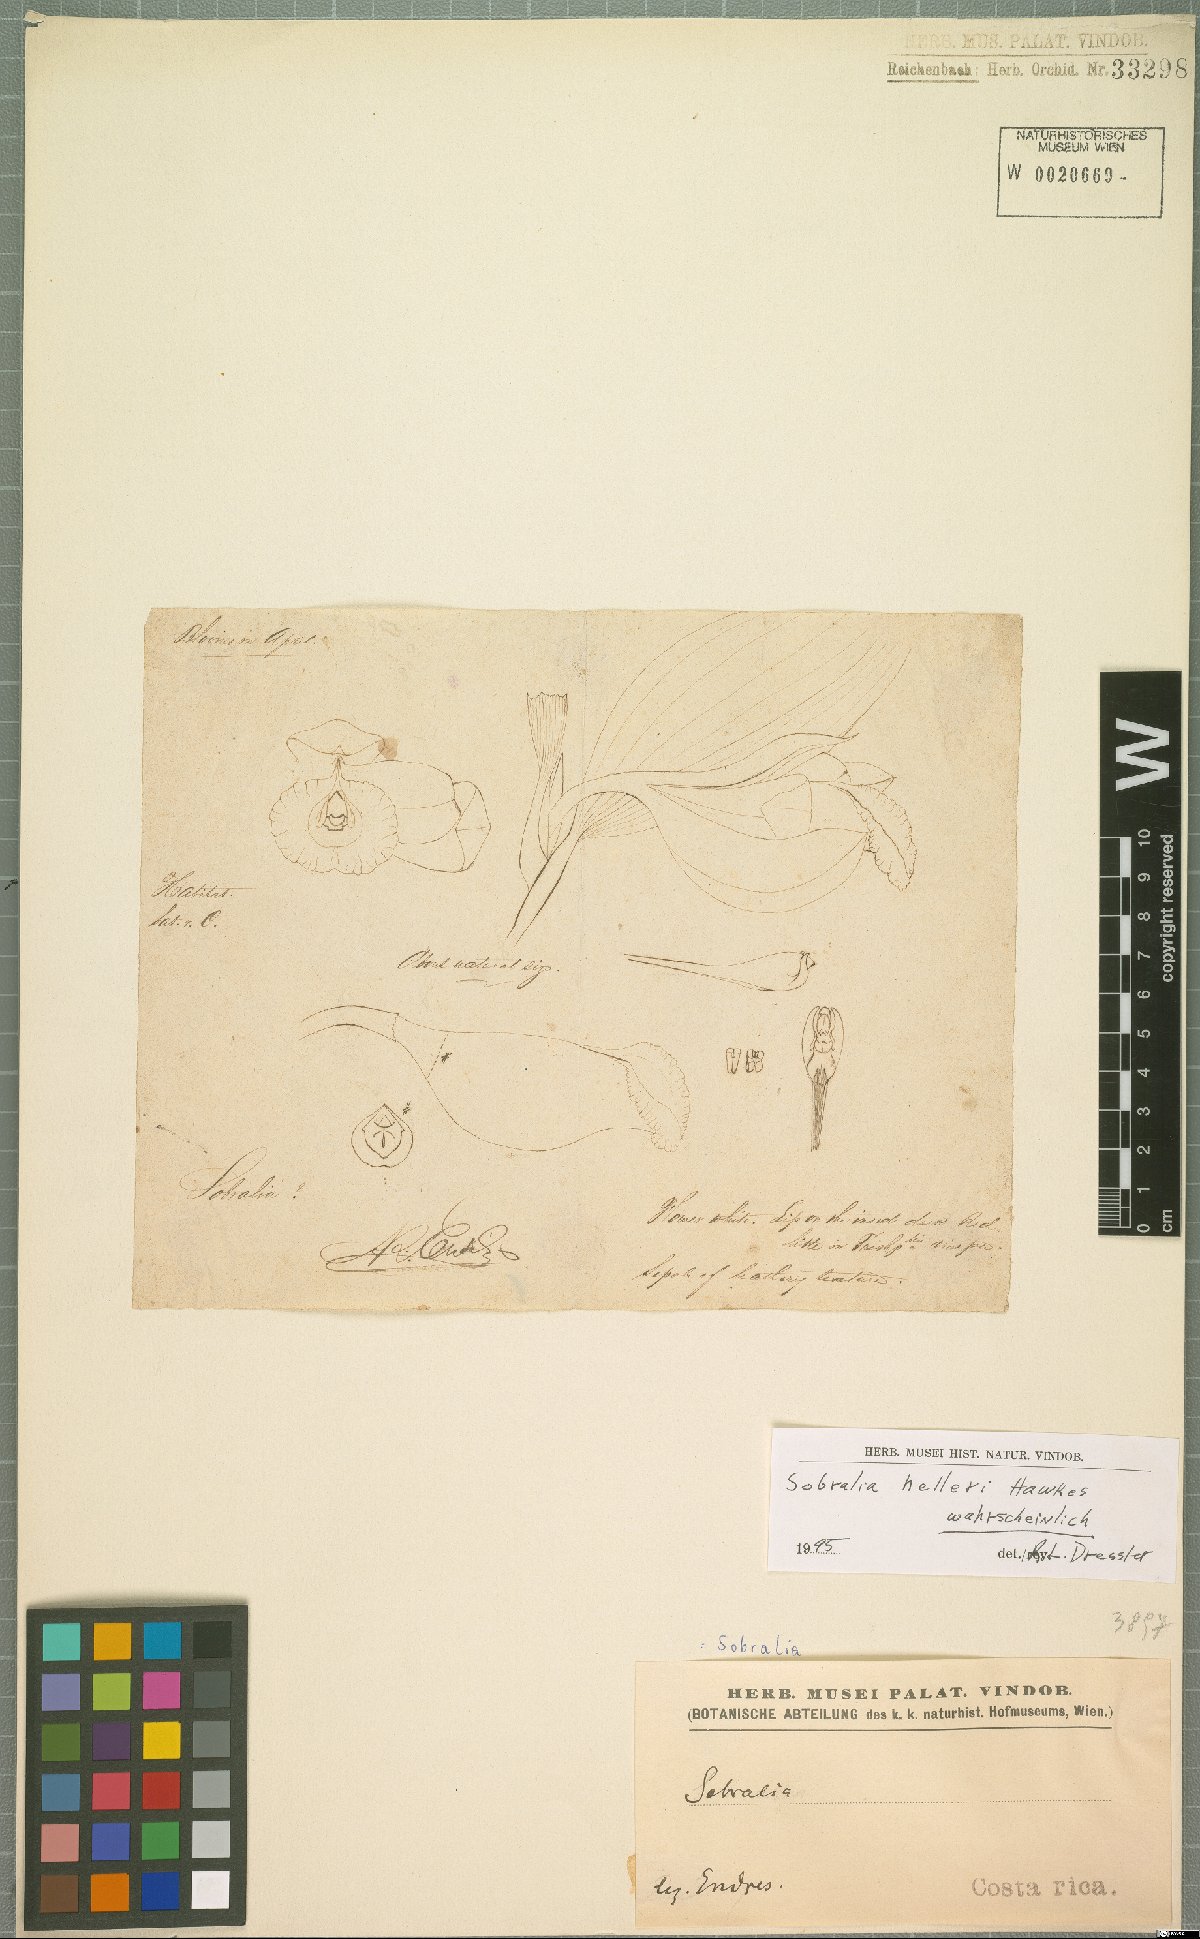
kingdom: Plantae
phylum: Tracheophyta
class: Liliopsida
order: Asparagales
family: Orchidaceae
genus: Sobralia
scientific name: Sobralia helleri
